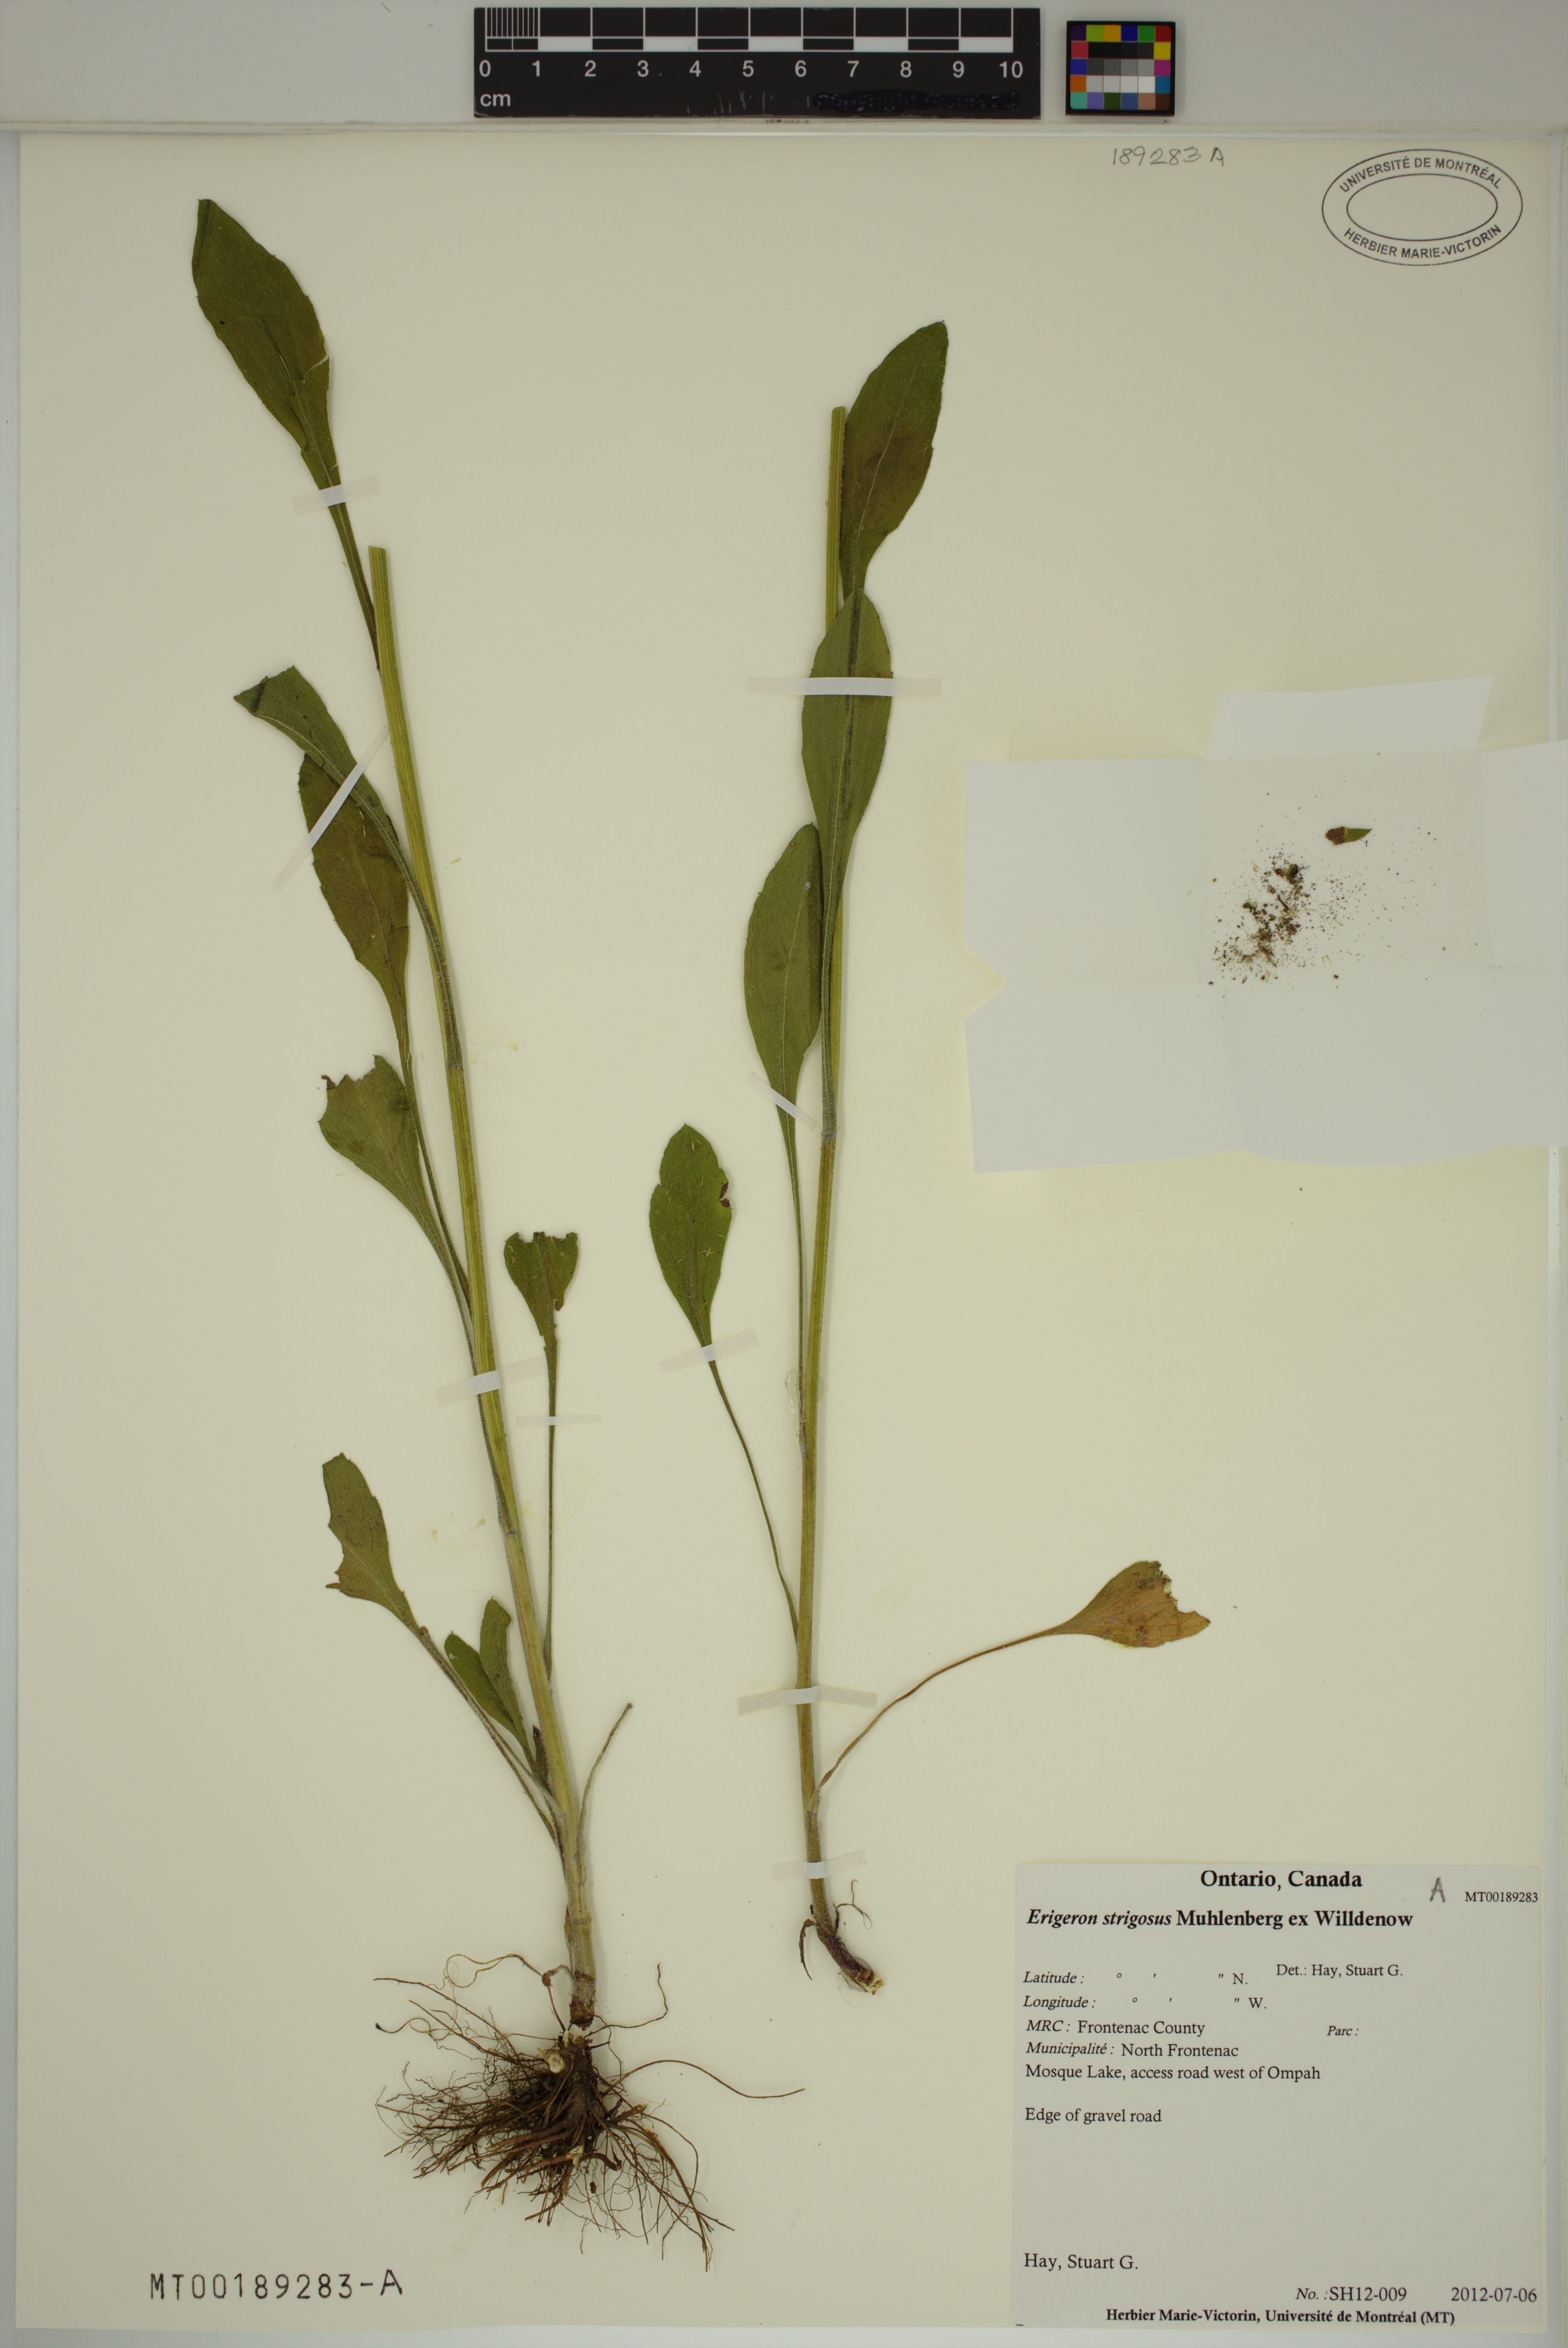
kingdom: Plantae
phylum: Tracheophyta
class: Magnoliopsida
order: Asterales
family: Asteraceae
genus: Erigeron
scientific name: Erigeron strigosus
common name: Common eastern fleabane
